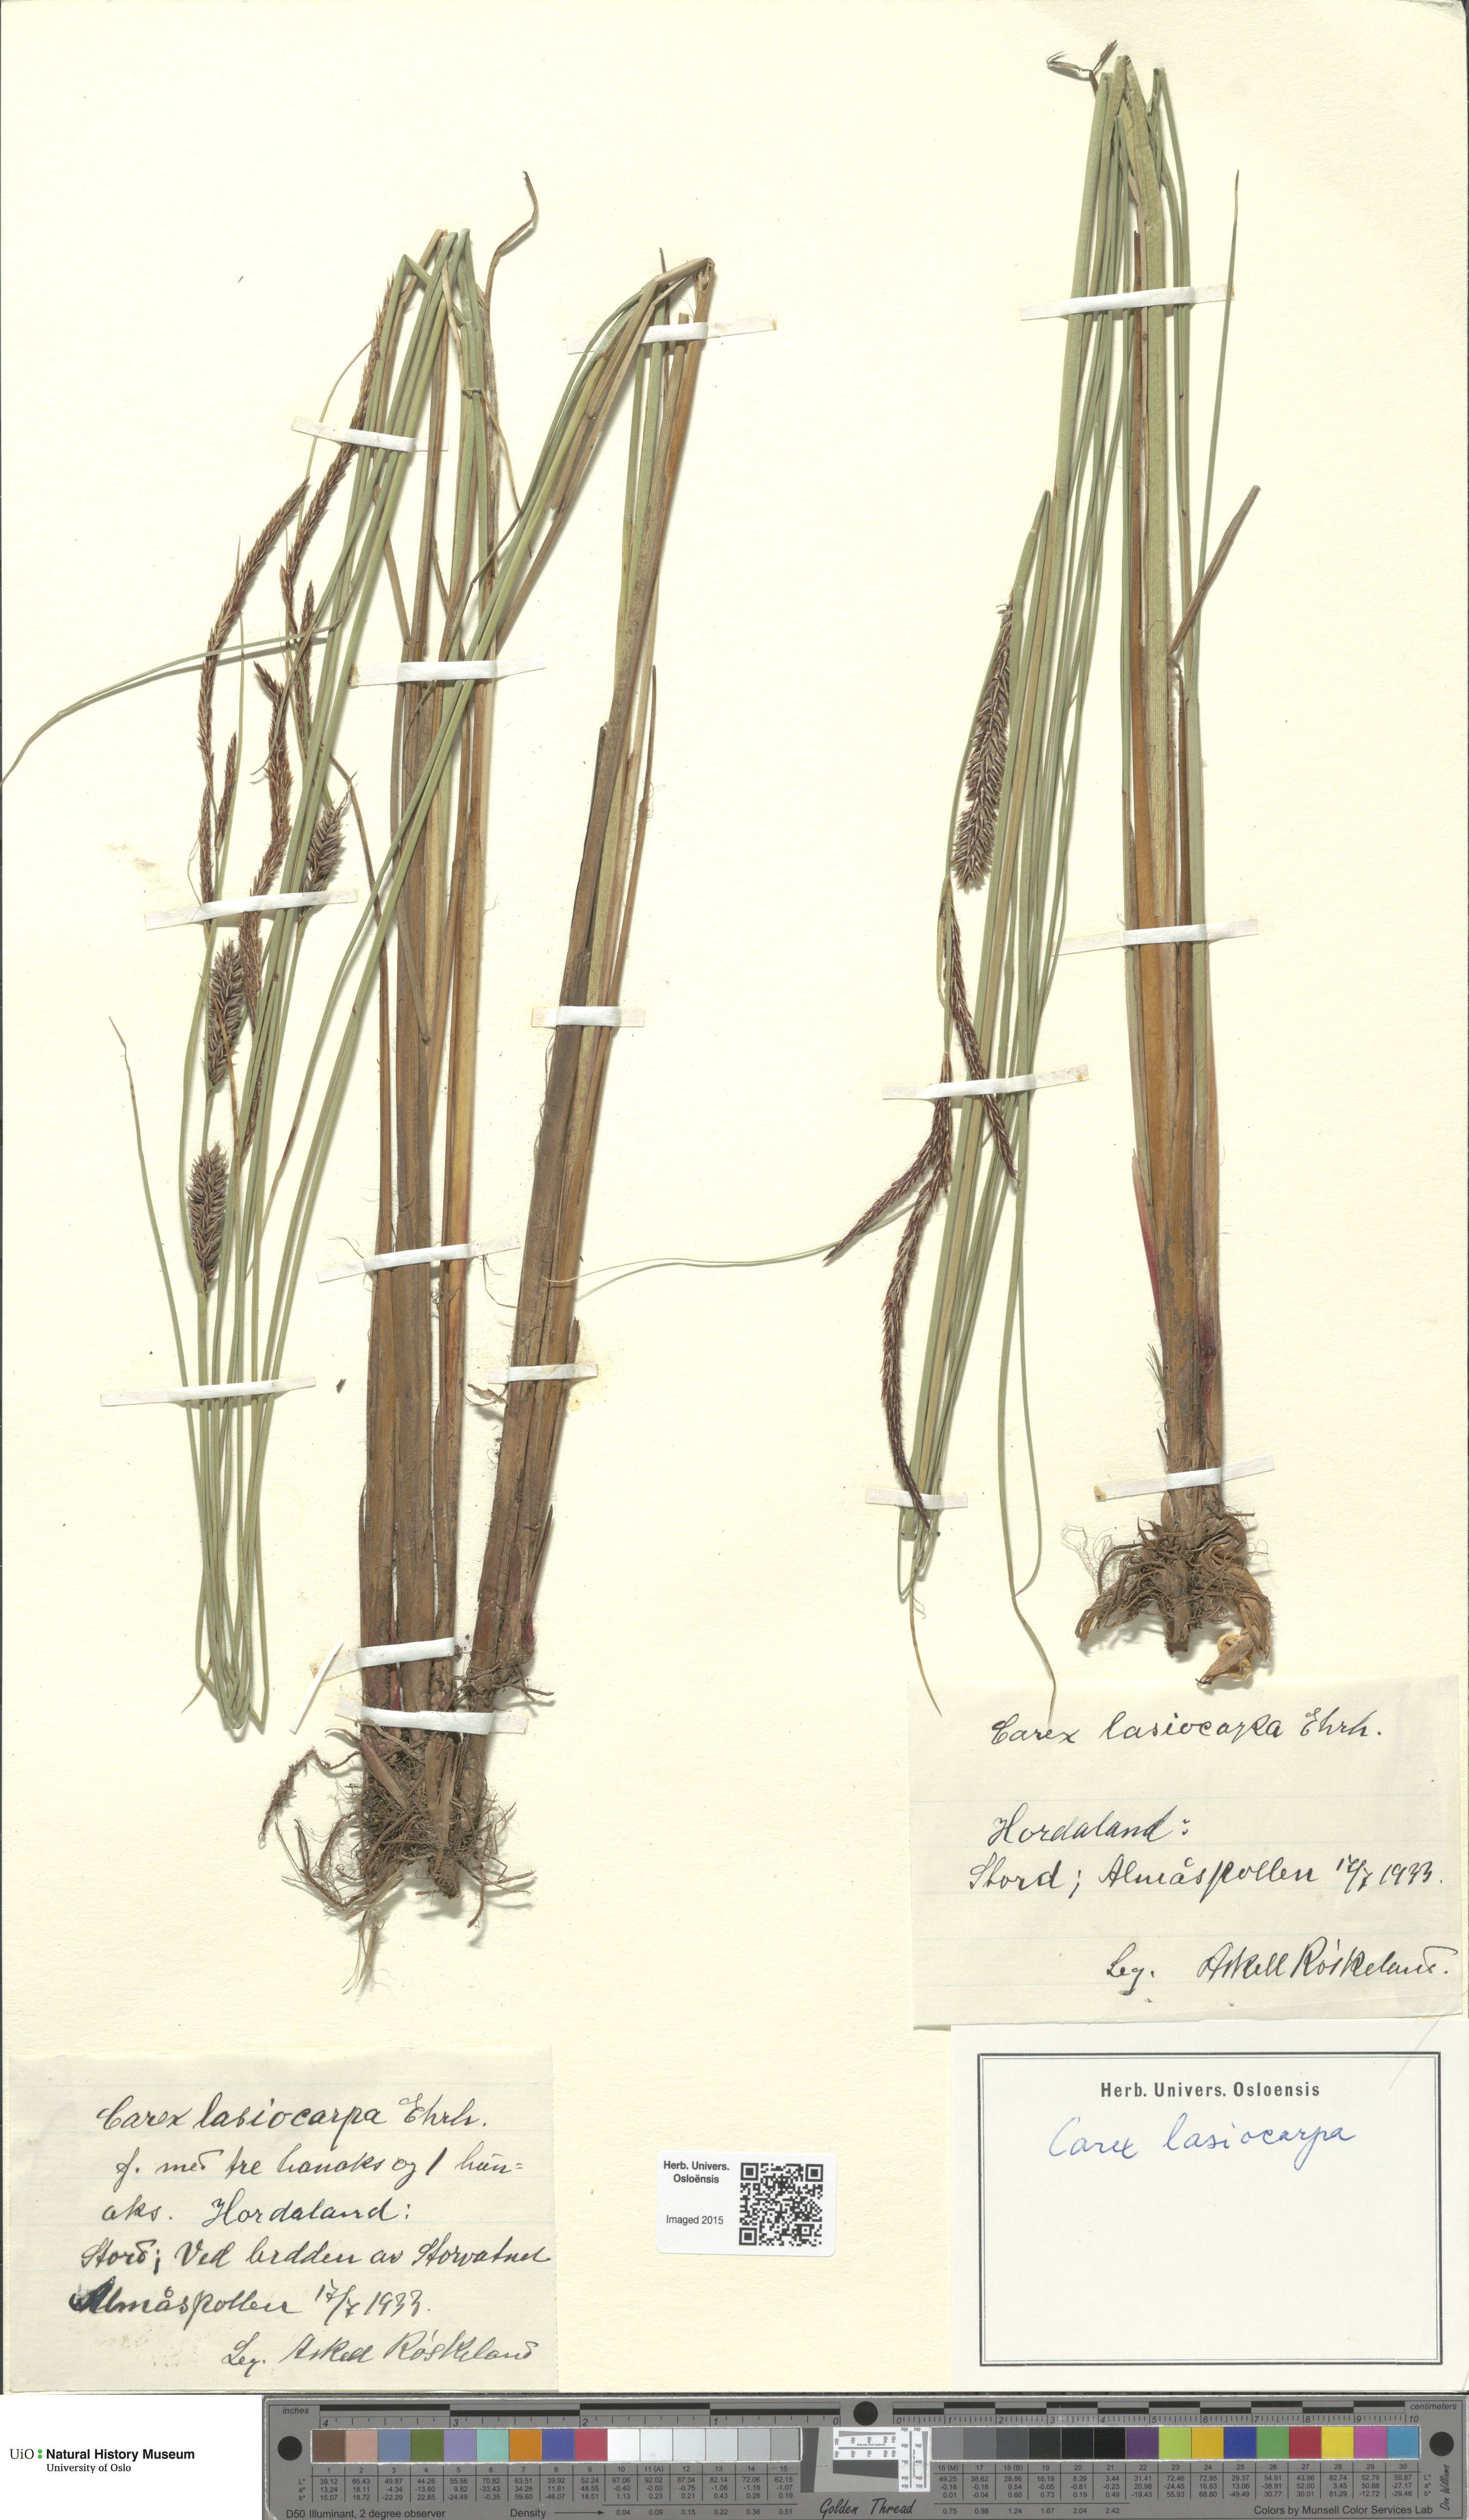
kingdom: Plantae
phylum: Tracheophyta
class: Liliopsida
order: Poales
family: Cyperaceae
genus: Carex
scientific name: Carex lasiocarpa
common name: Slender sedge
